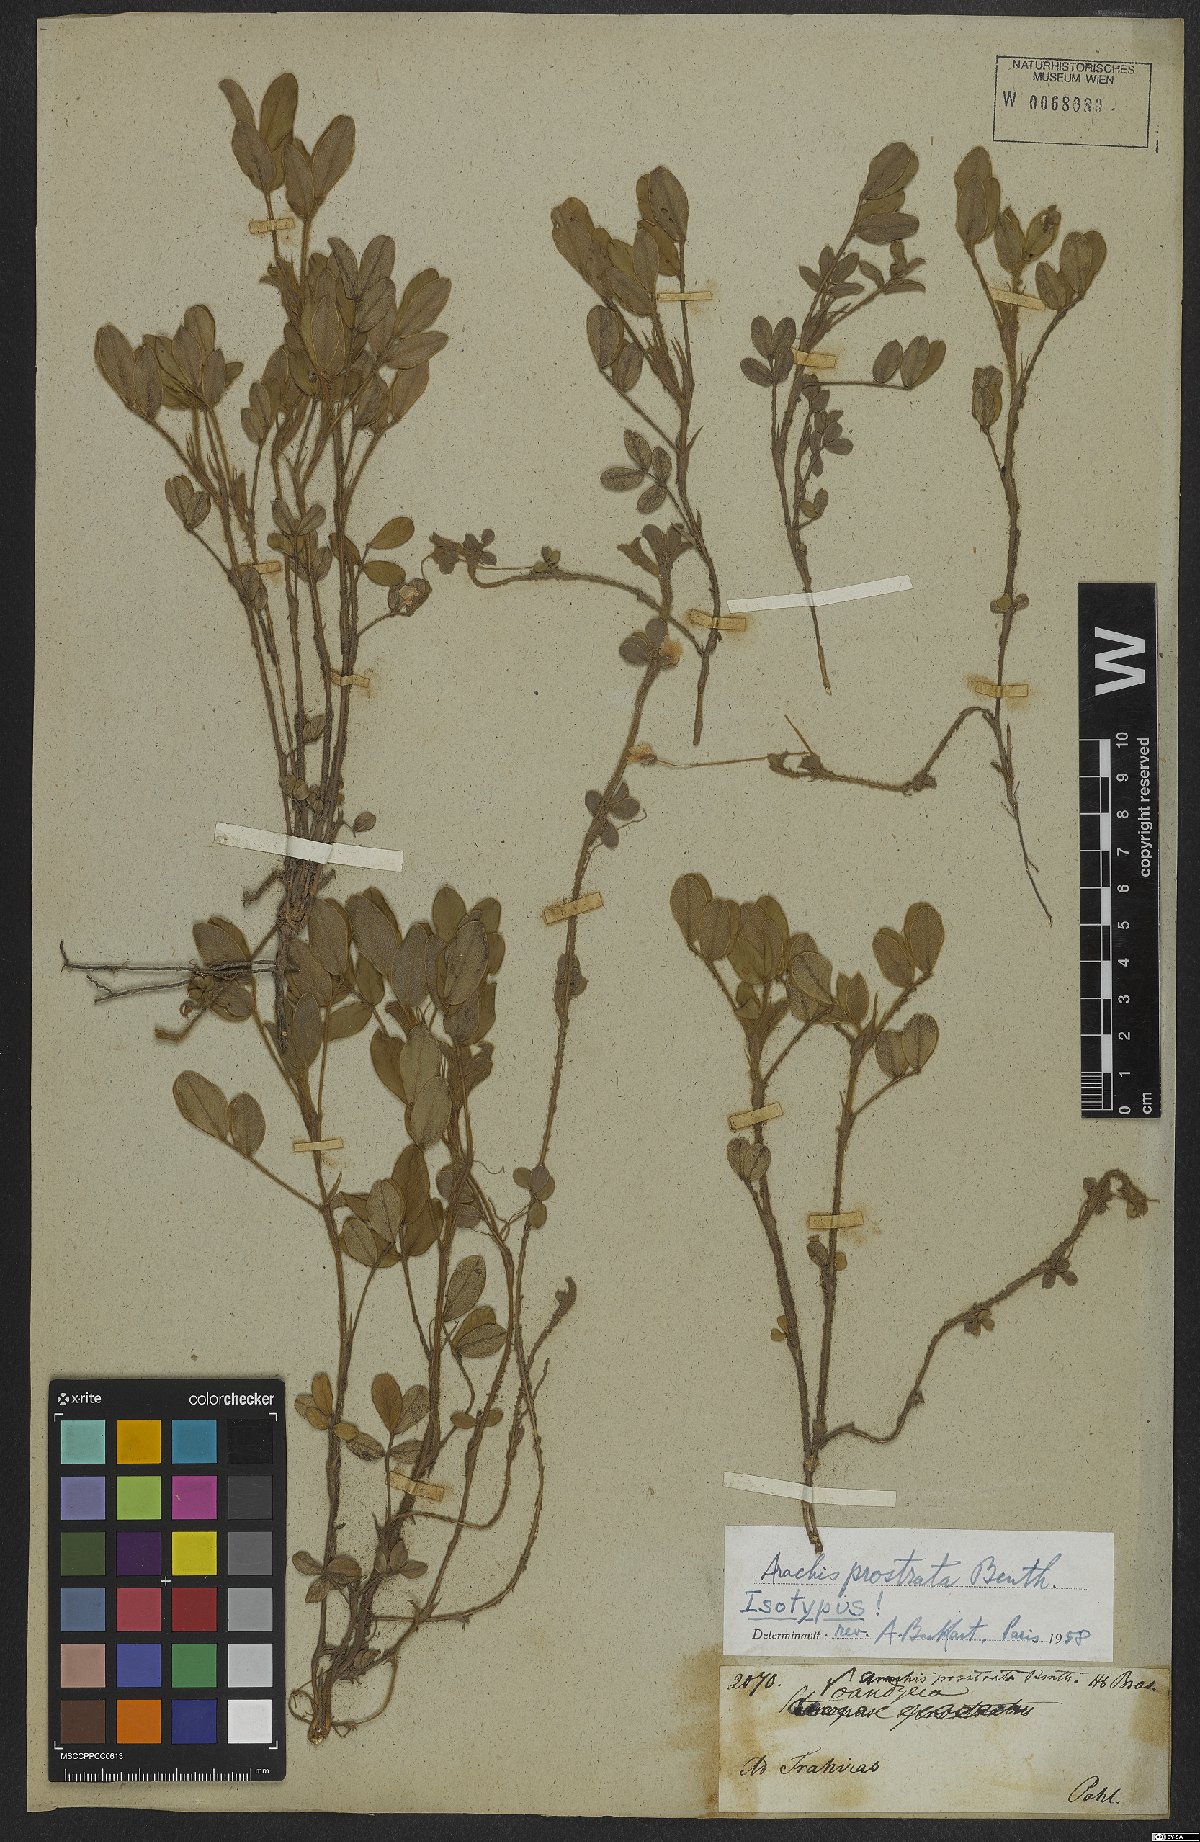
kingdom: Plantae
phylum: Tracheophyta
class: Magnoliopsida
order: Fabales
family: Fabaceae
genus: Arachis
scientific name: Arachis prostrata
